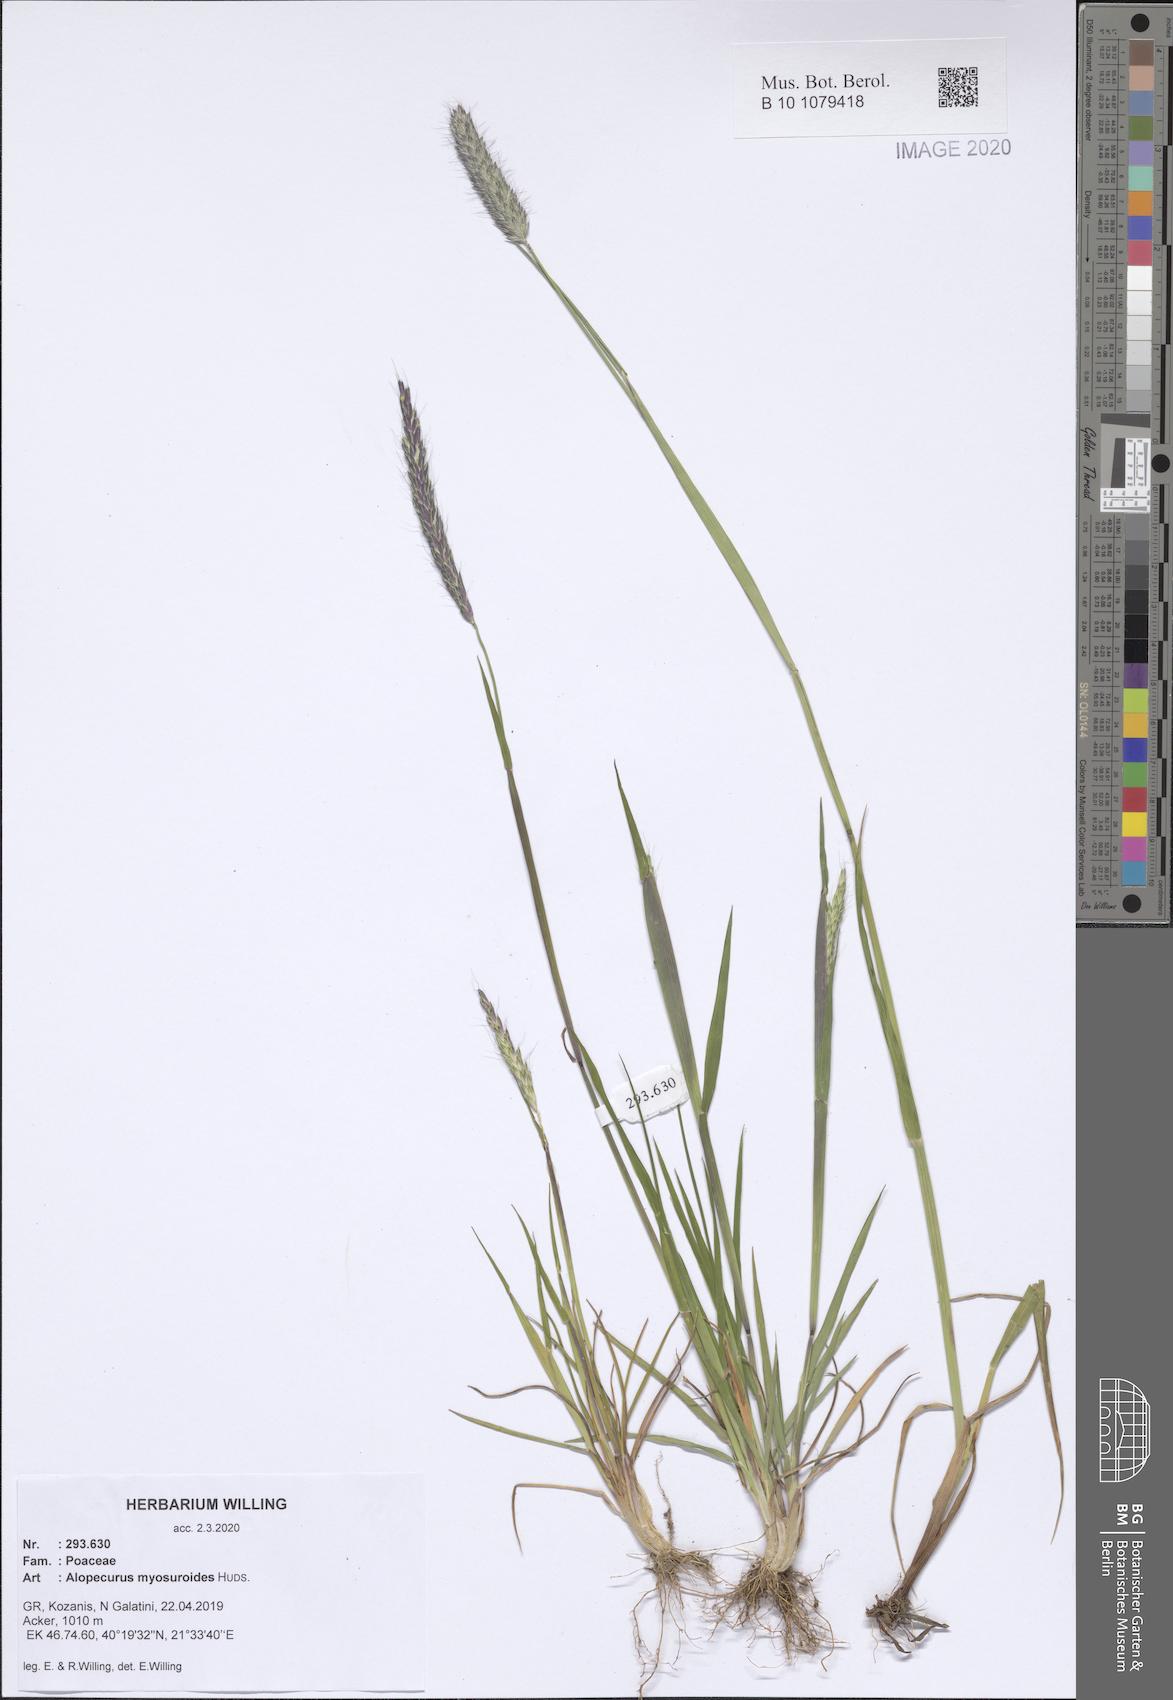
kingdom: Plantae
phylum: Tracheophyta
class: Liliopsida
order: Poales
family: Poaceae
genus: Alopecurus
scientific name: Alopecurus myosuroides
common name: Black-grass
